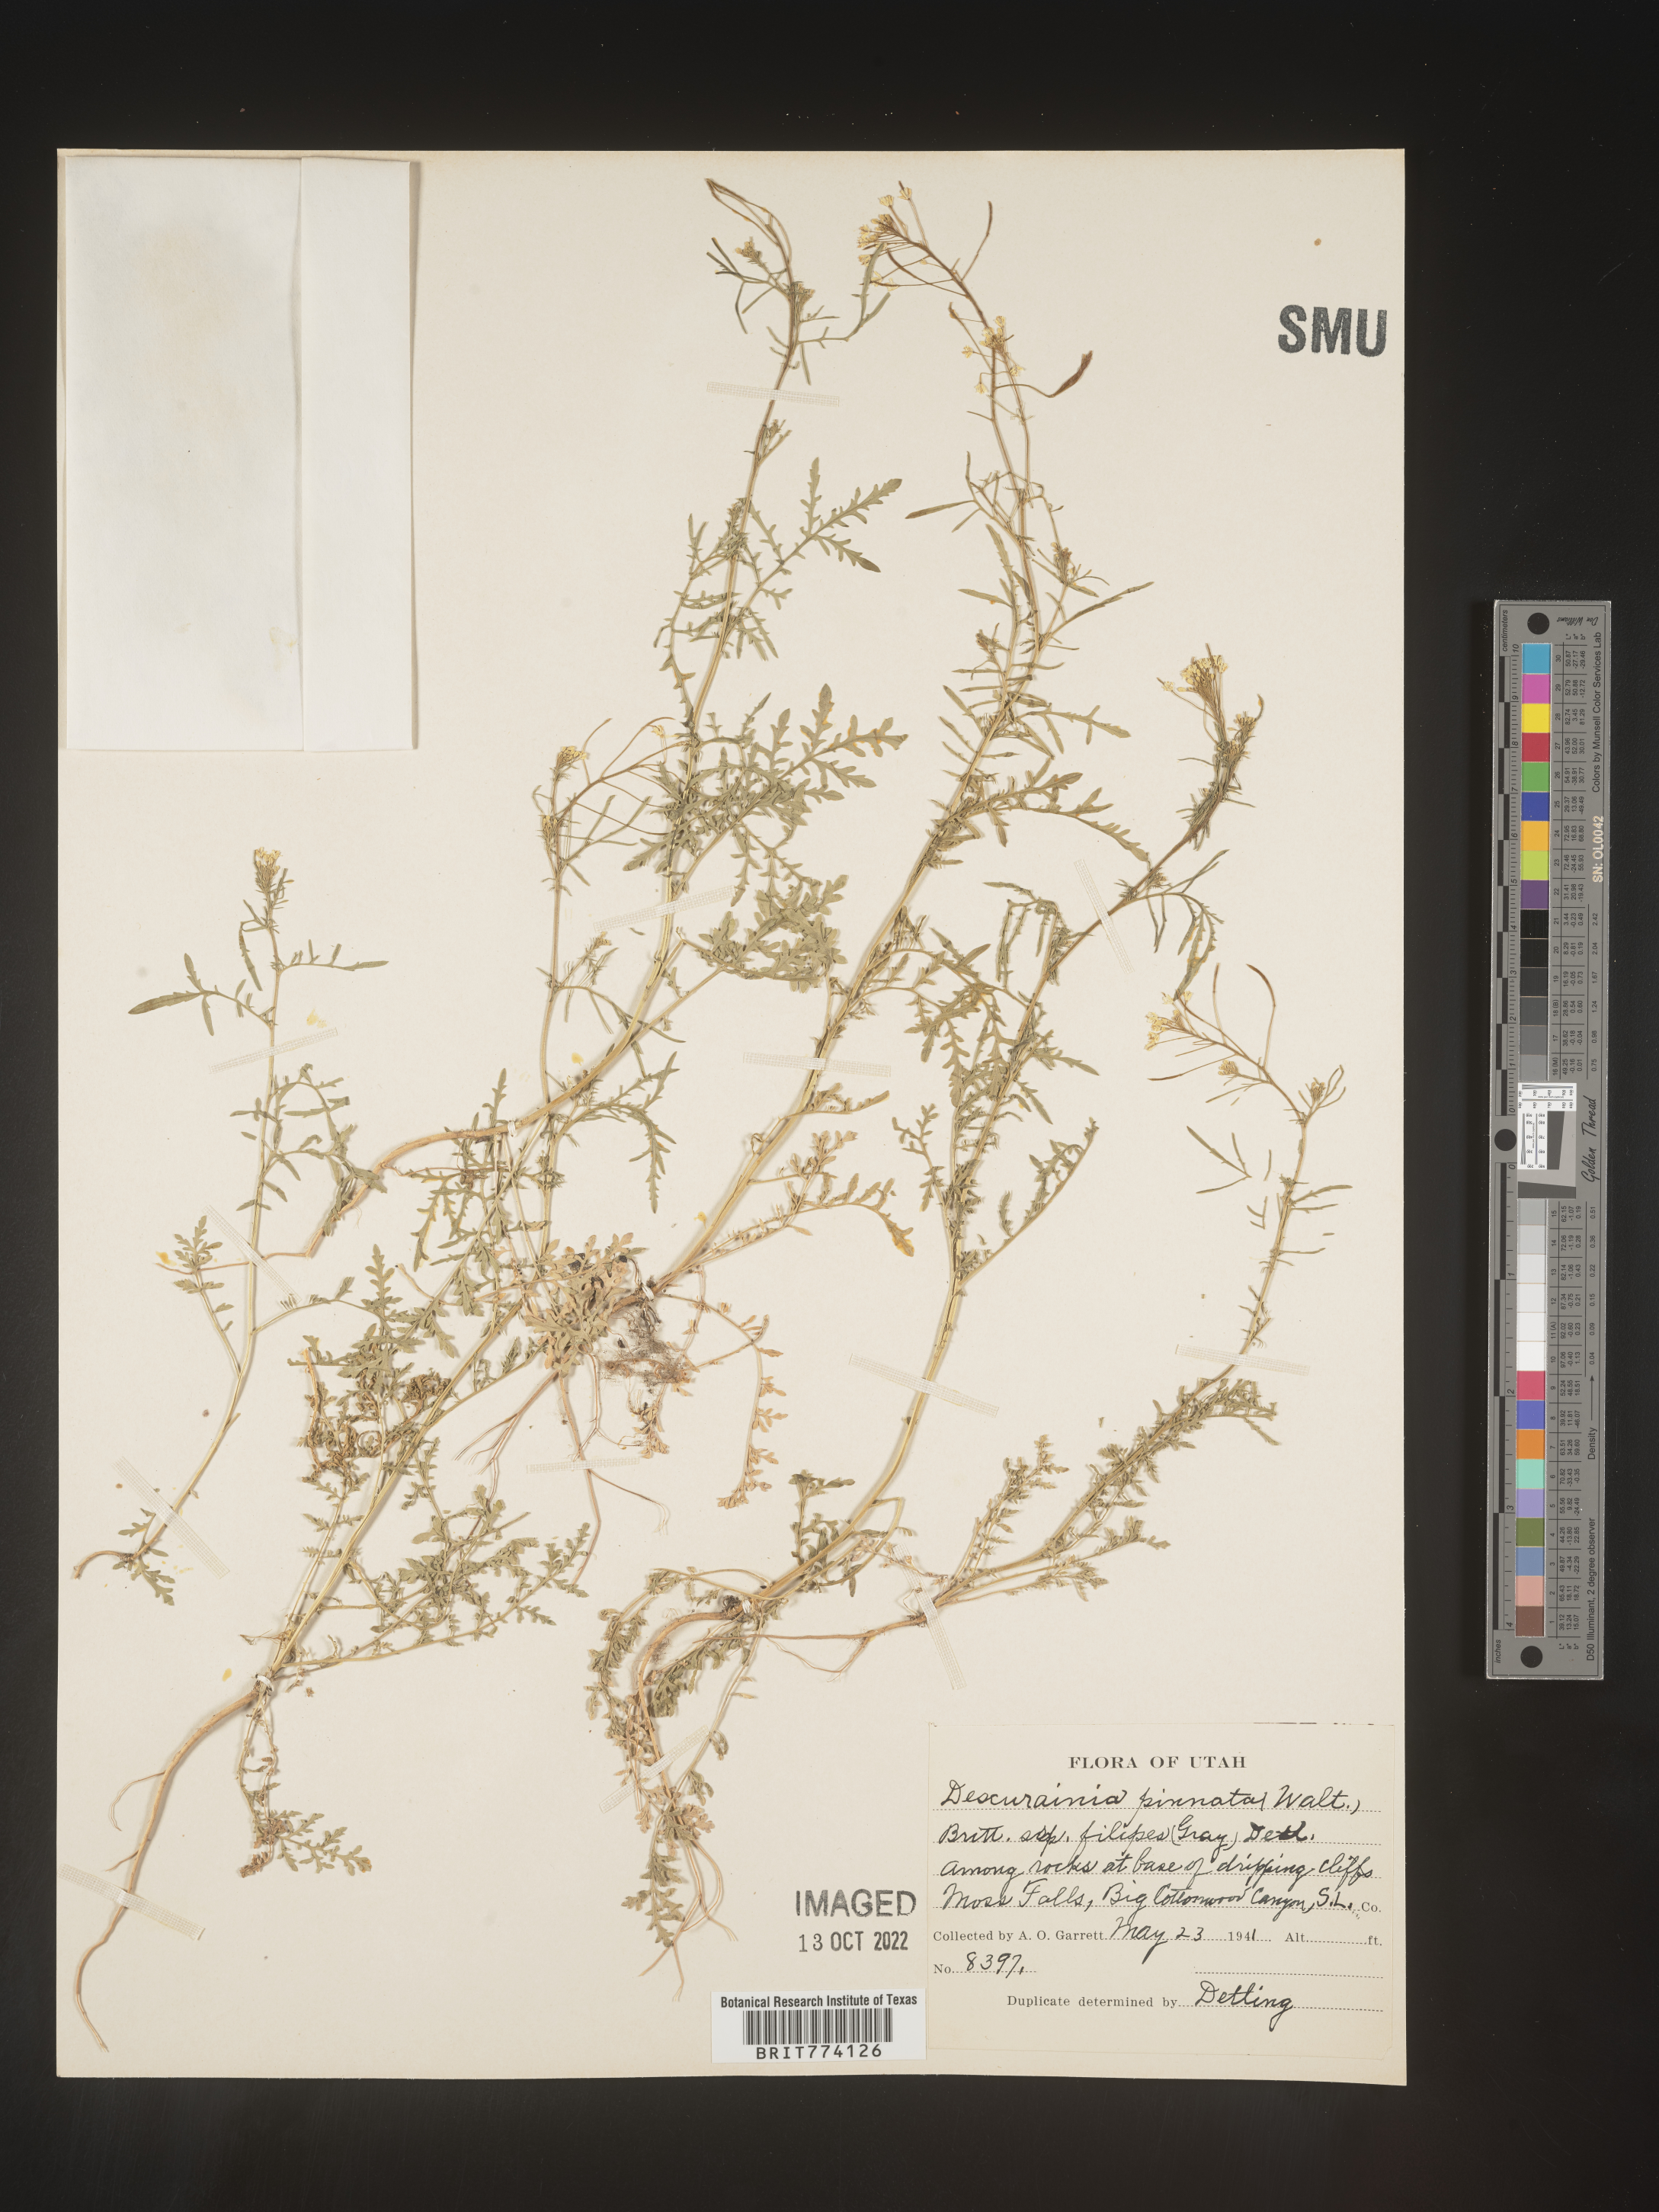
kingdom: Plantae
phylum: Tracheophyta
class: Magnoliopsida
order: Brassicales
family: Brassicaceae
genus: Descurainia
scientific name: Descurainia longipedicellata
